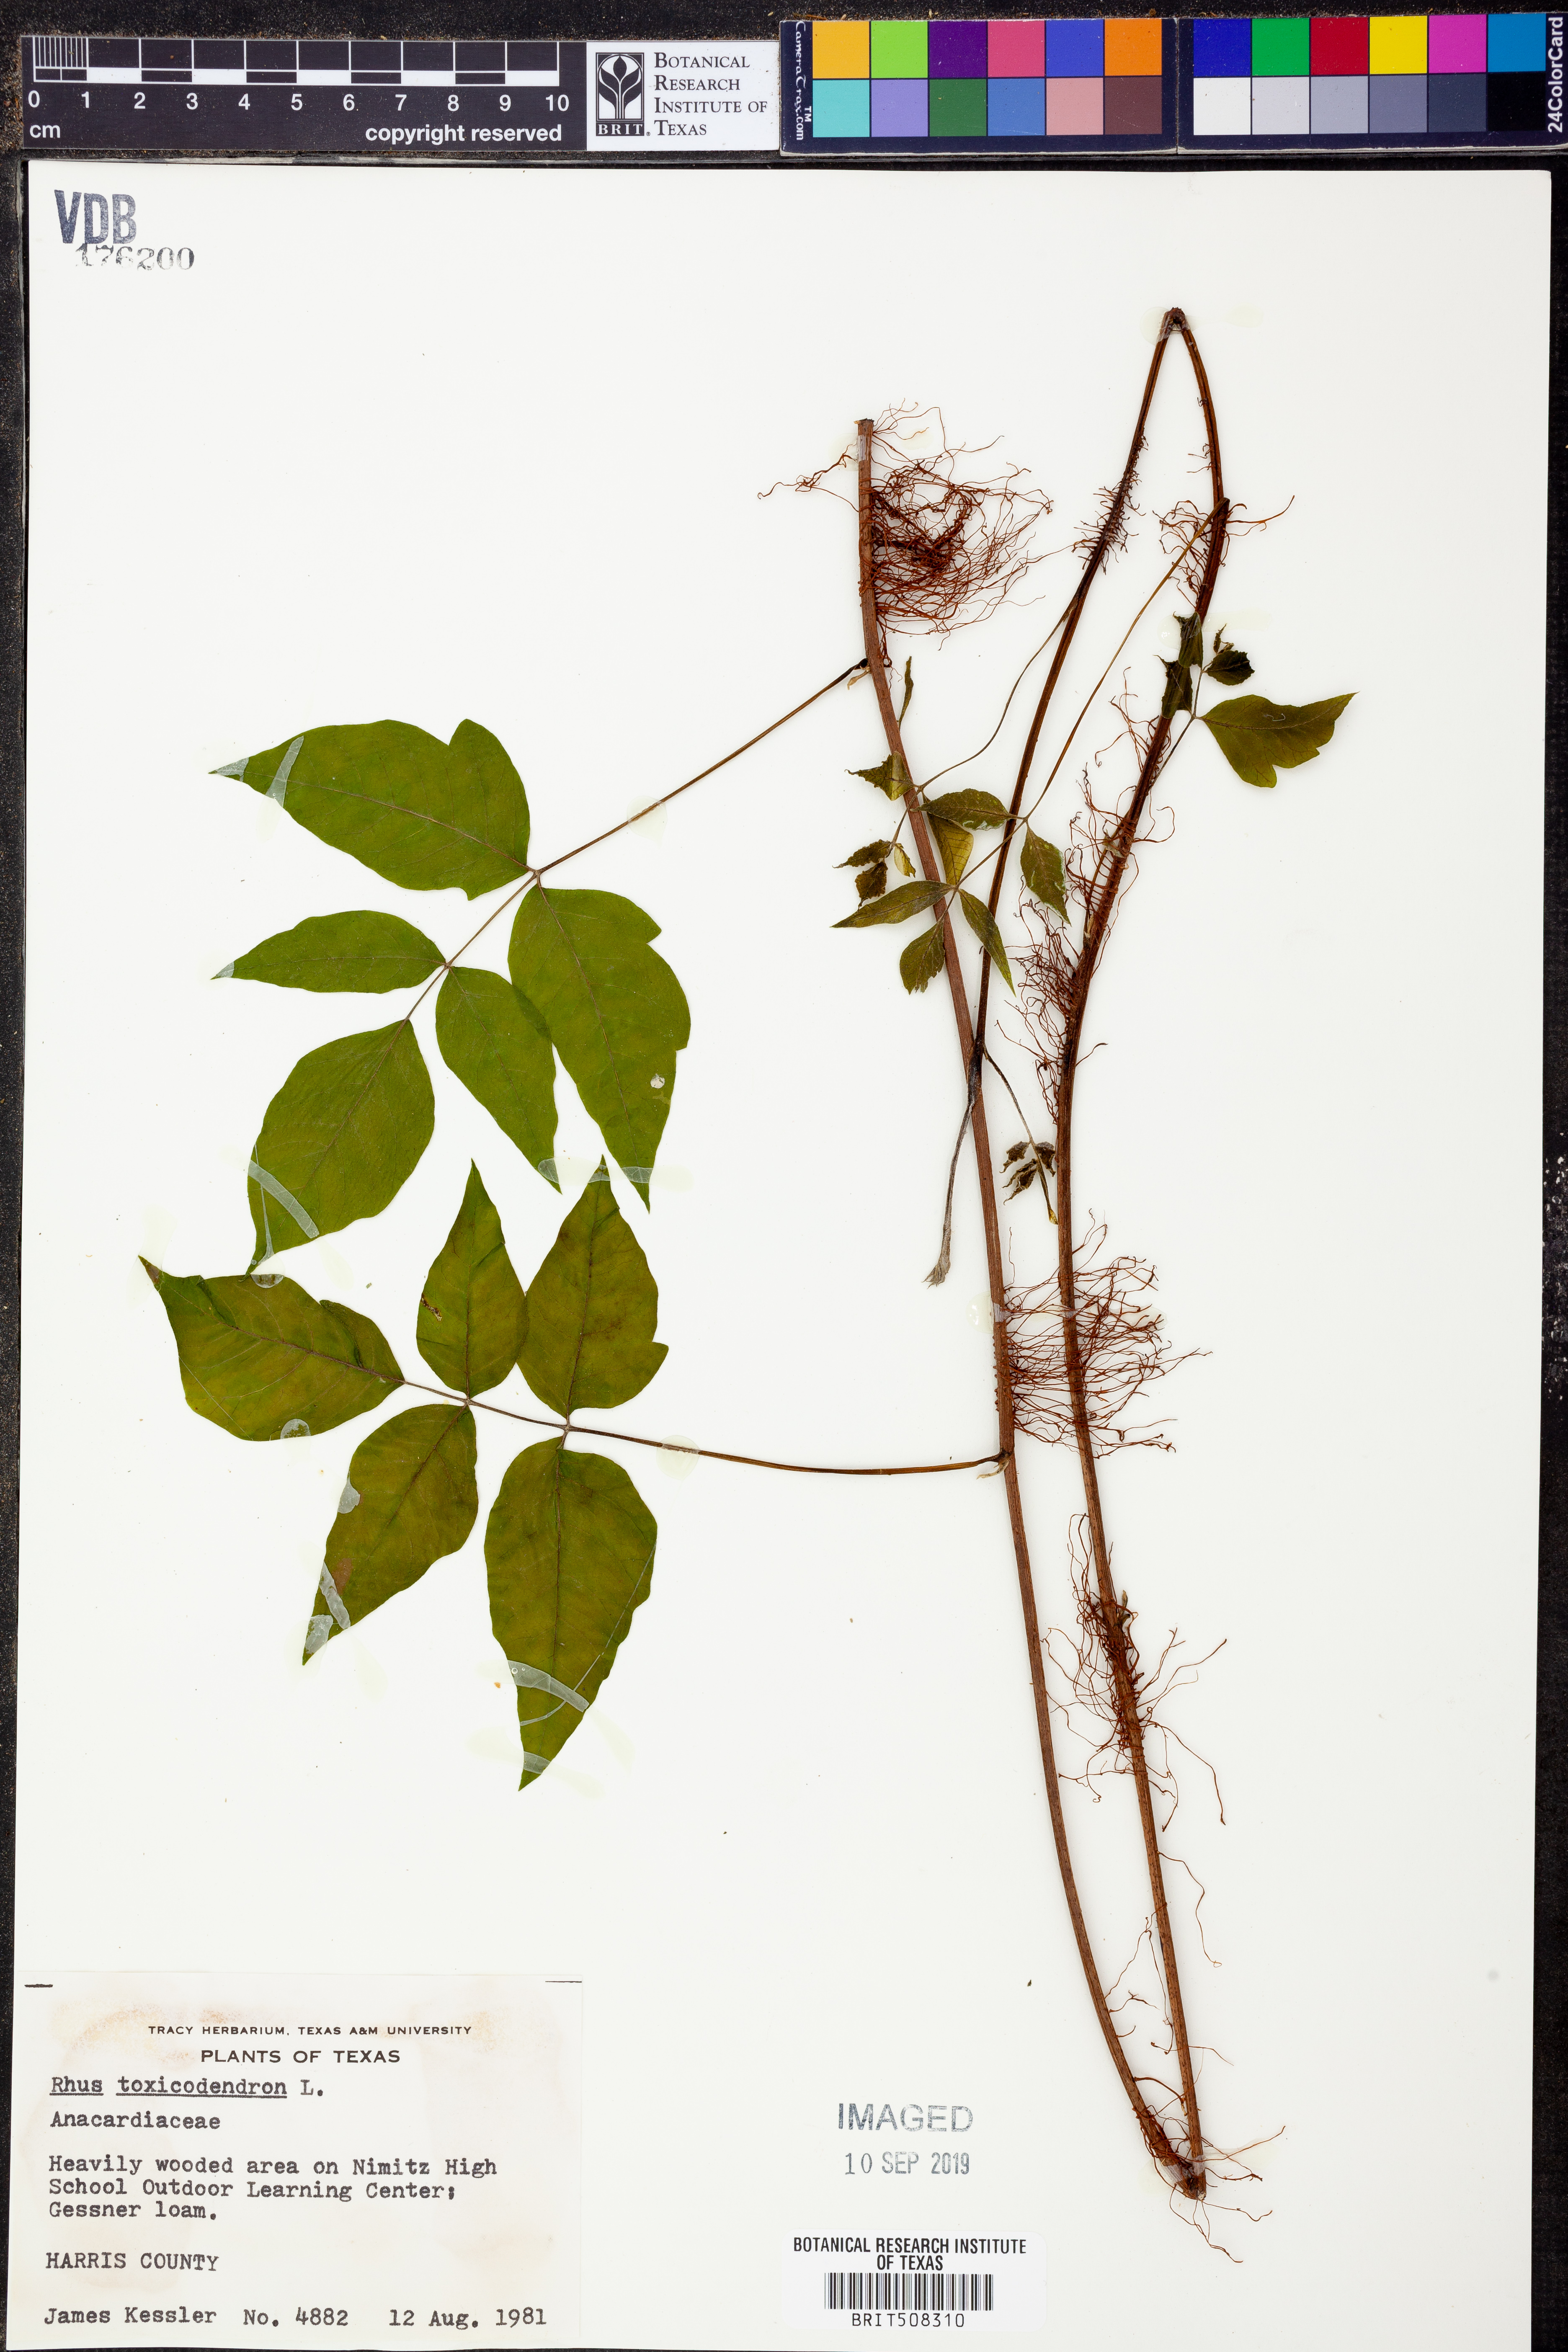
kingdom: Plantae
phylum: Tracheophyta
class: Magnoliopsida
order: Sapindales
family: Anacardiaceae
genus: Toxicodendron
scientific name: Toxicodendron
